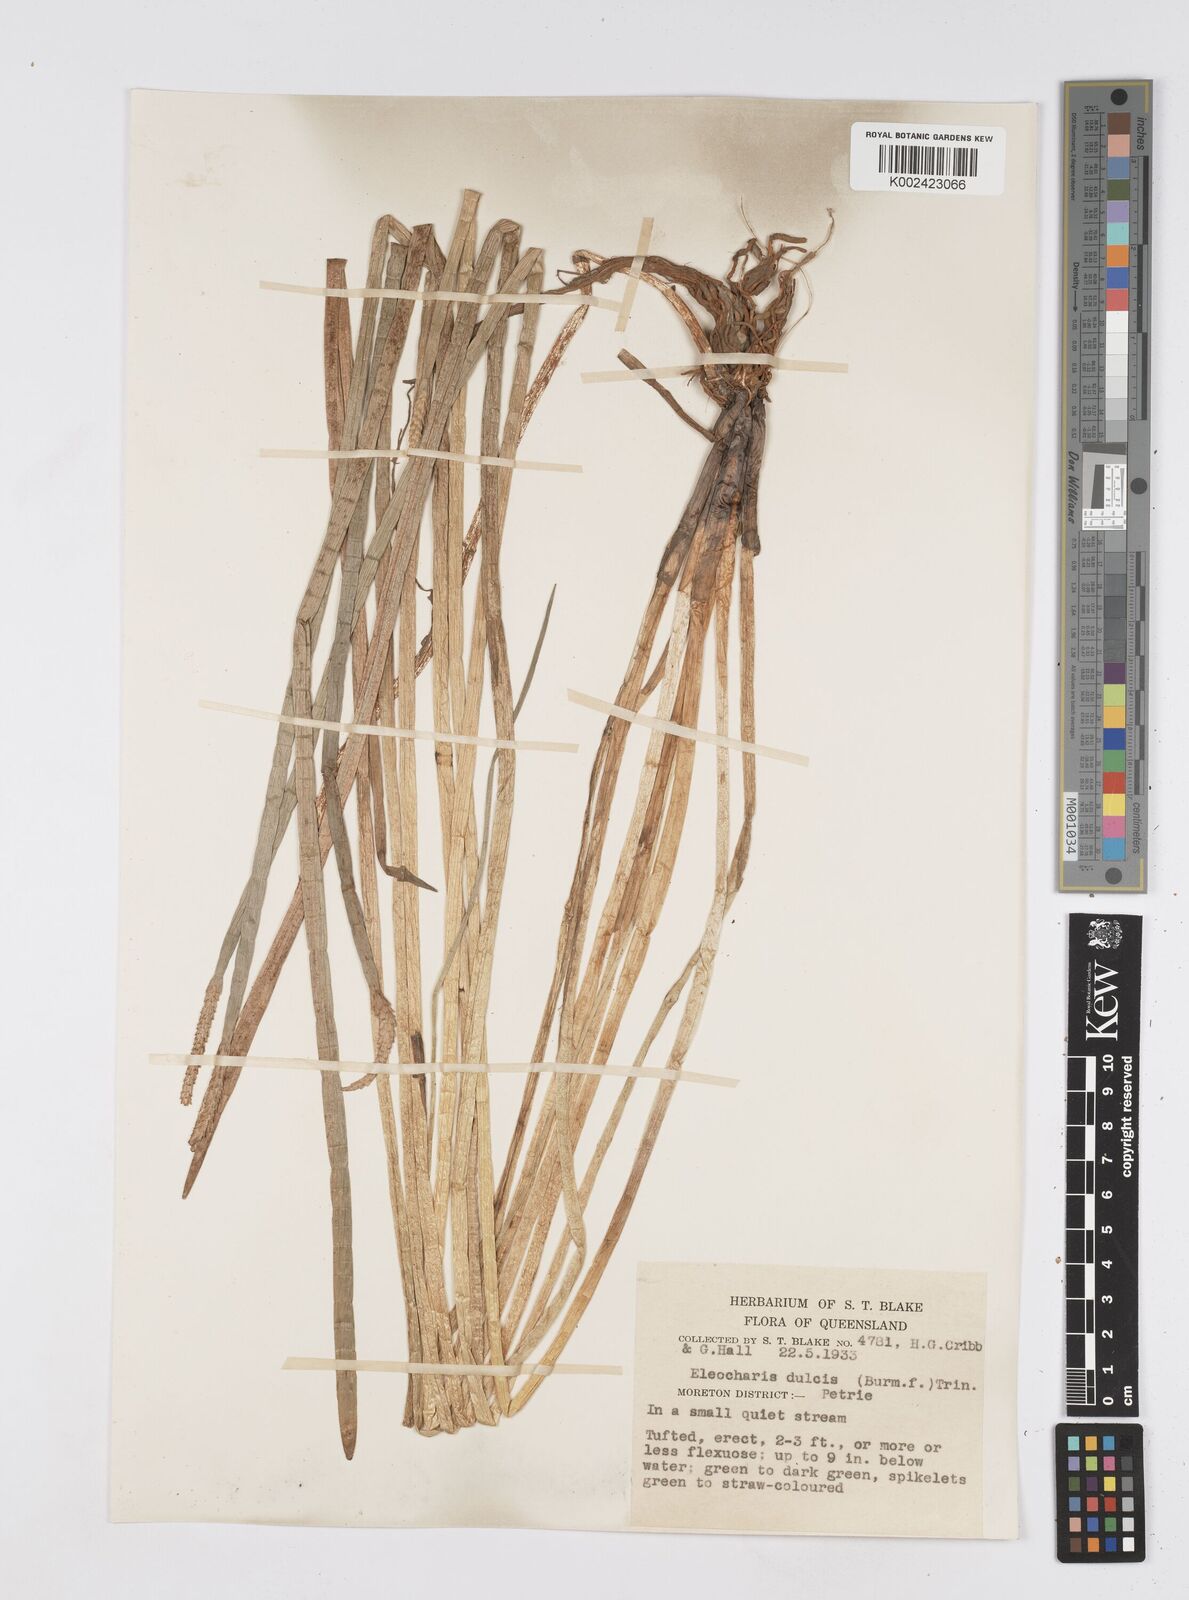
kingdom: Plantae
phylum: Tracheophyta
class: Liliopsida
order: Poales
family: Cyperaceae
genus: Eleocharis
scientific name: Eleocharis dulcis
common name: Chinese water chestnut
